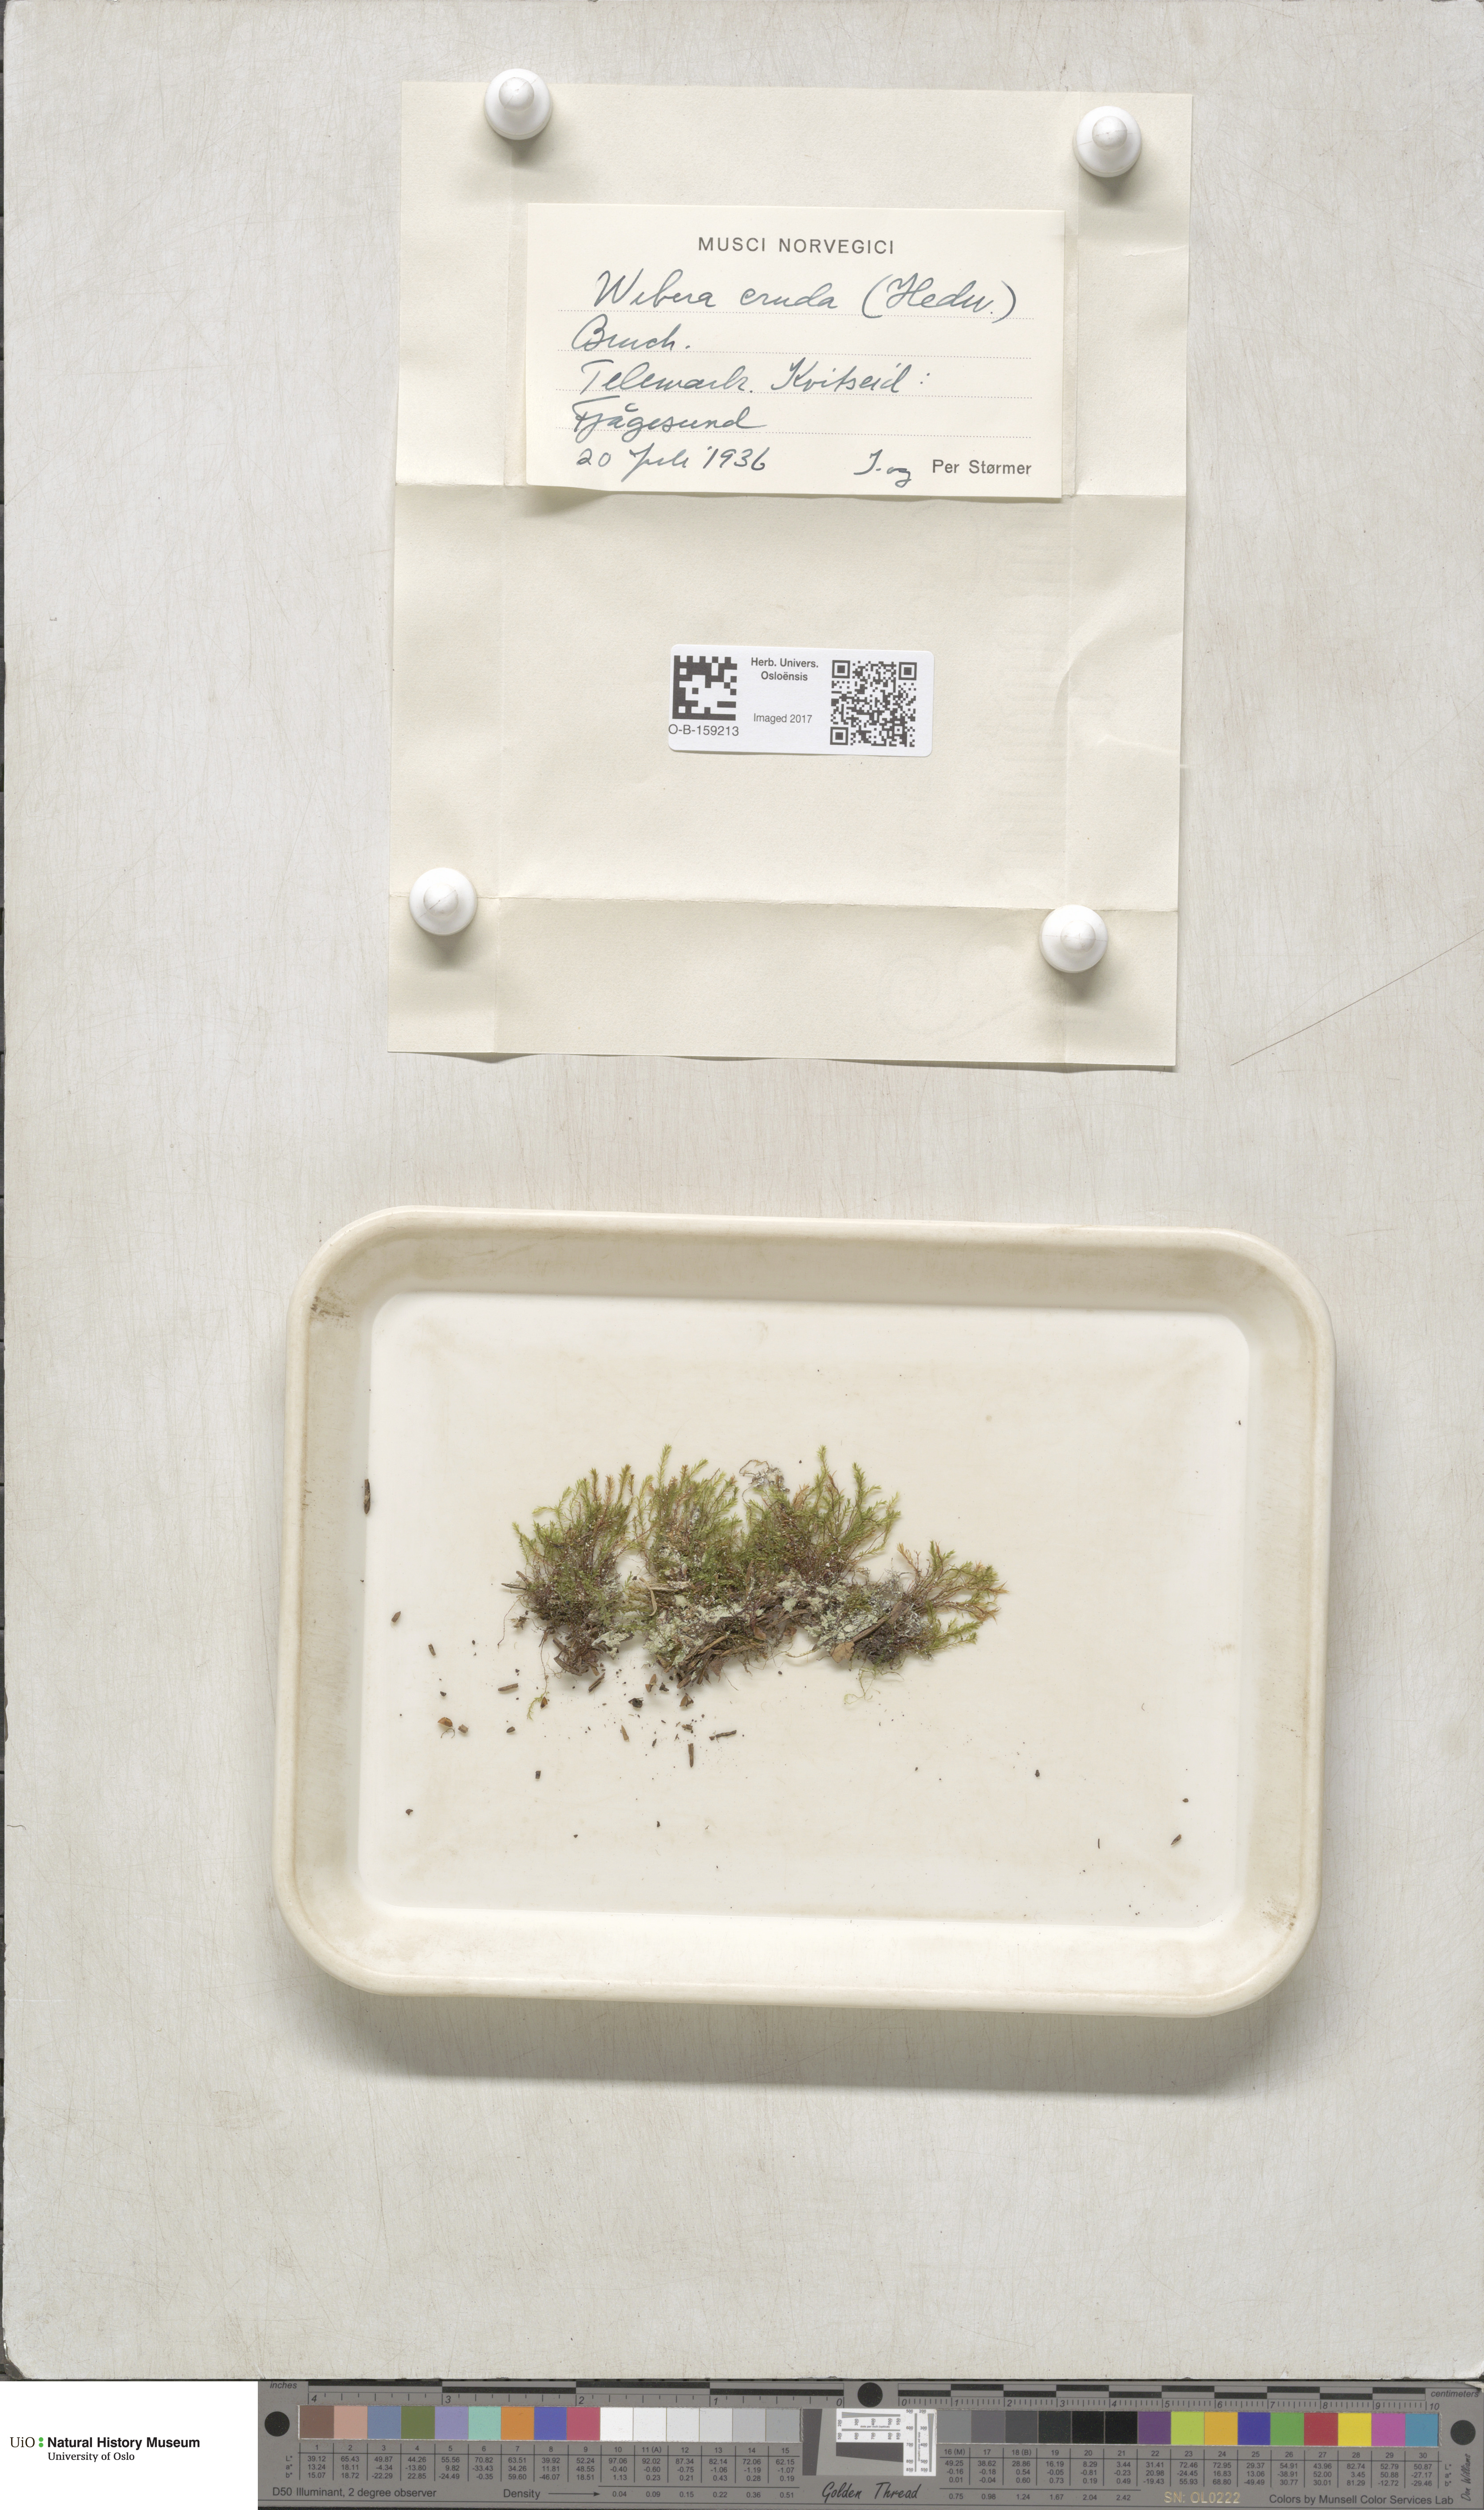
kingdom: Plantae
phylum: Bryophyta
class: Bryopsida
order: Bryales
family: Mniaceae
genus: Pohlia
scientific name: Pohlia cruda
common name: Opal nodding moss
